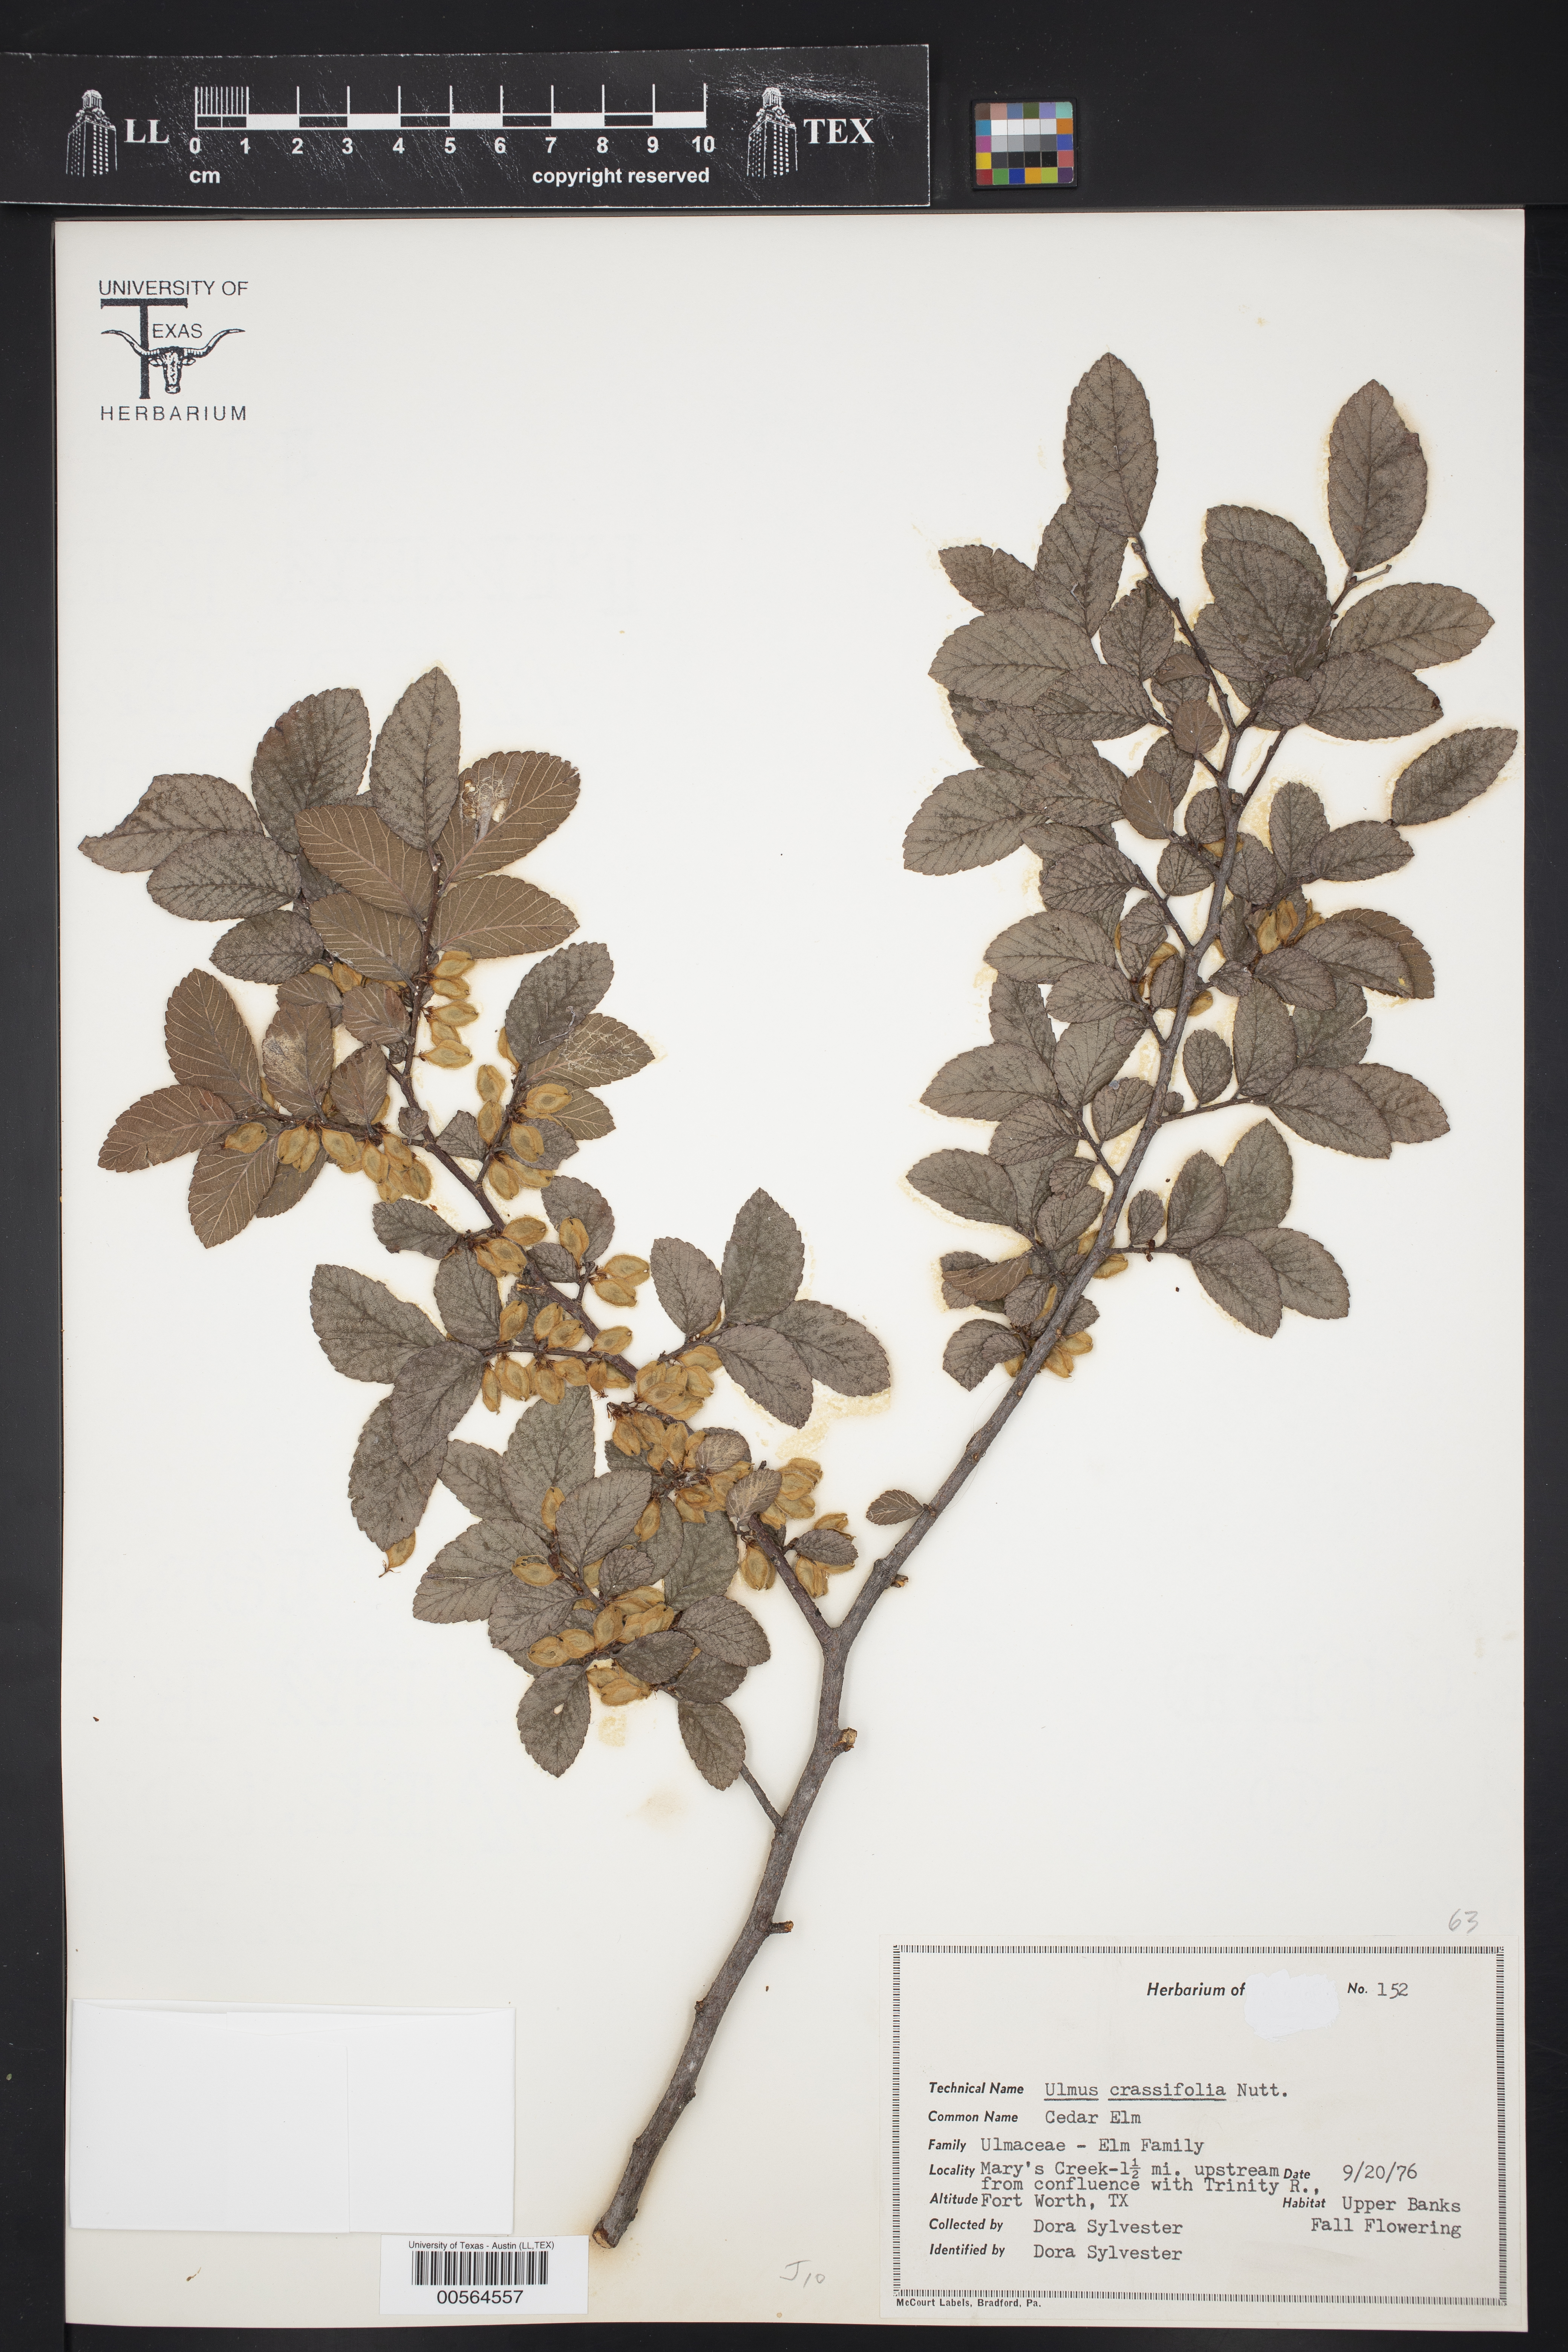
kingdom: Plantae
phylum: Tracheophyta
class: Magnoliopsida
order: Rosales
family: Ulmaceae
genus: Ulmus
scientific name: Ulmus crassifolia
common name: Basket elm
